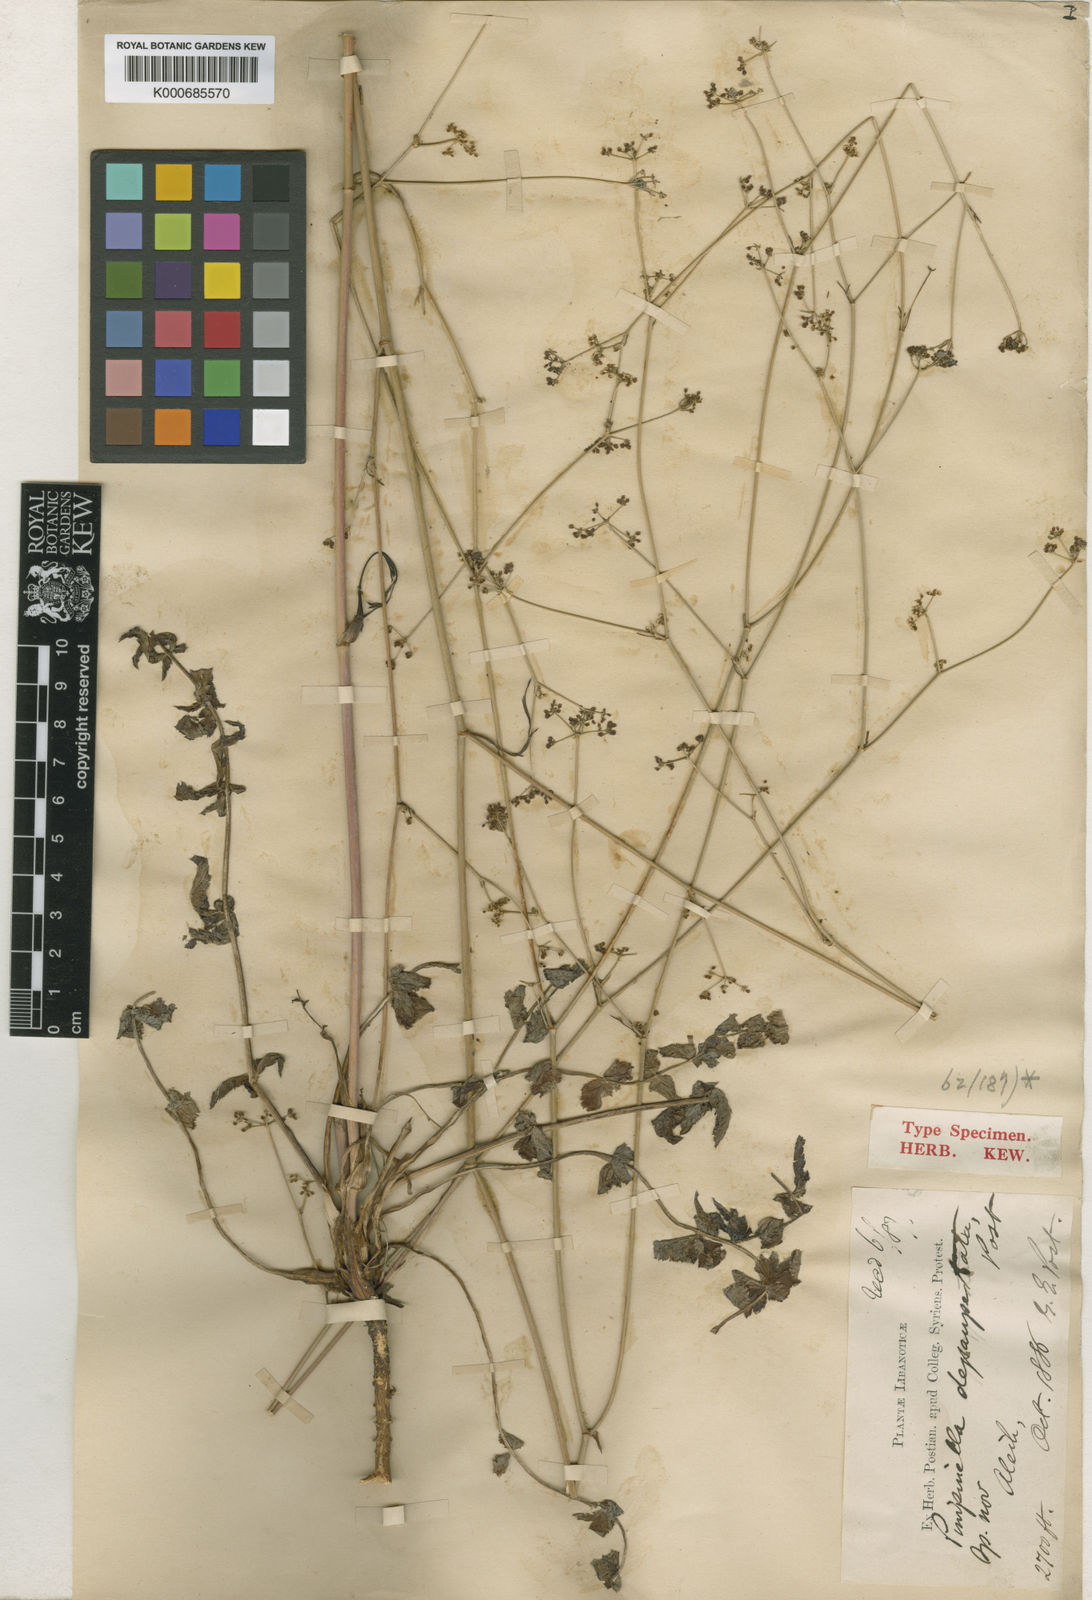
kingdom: Plantae
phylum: Tracheophyta
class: Magnoliopsida
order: Apiales
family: Apiaceae
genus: Pimpinella
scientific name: Pimpinella tragium
